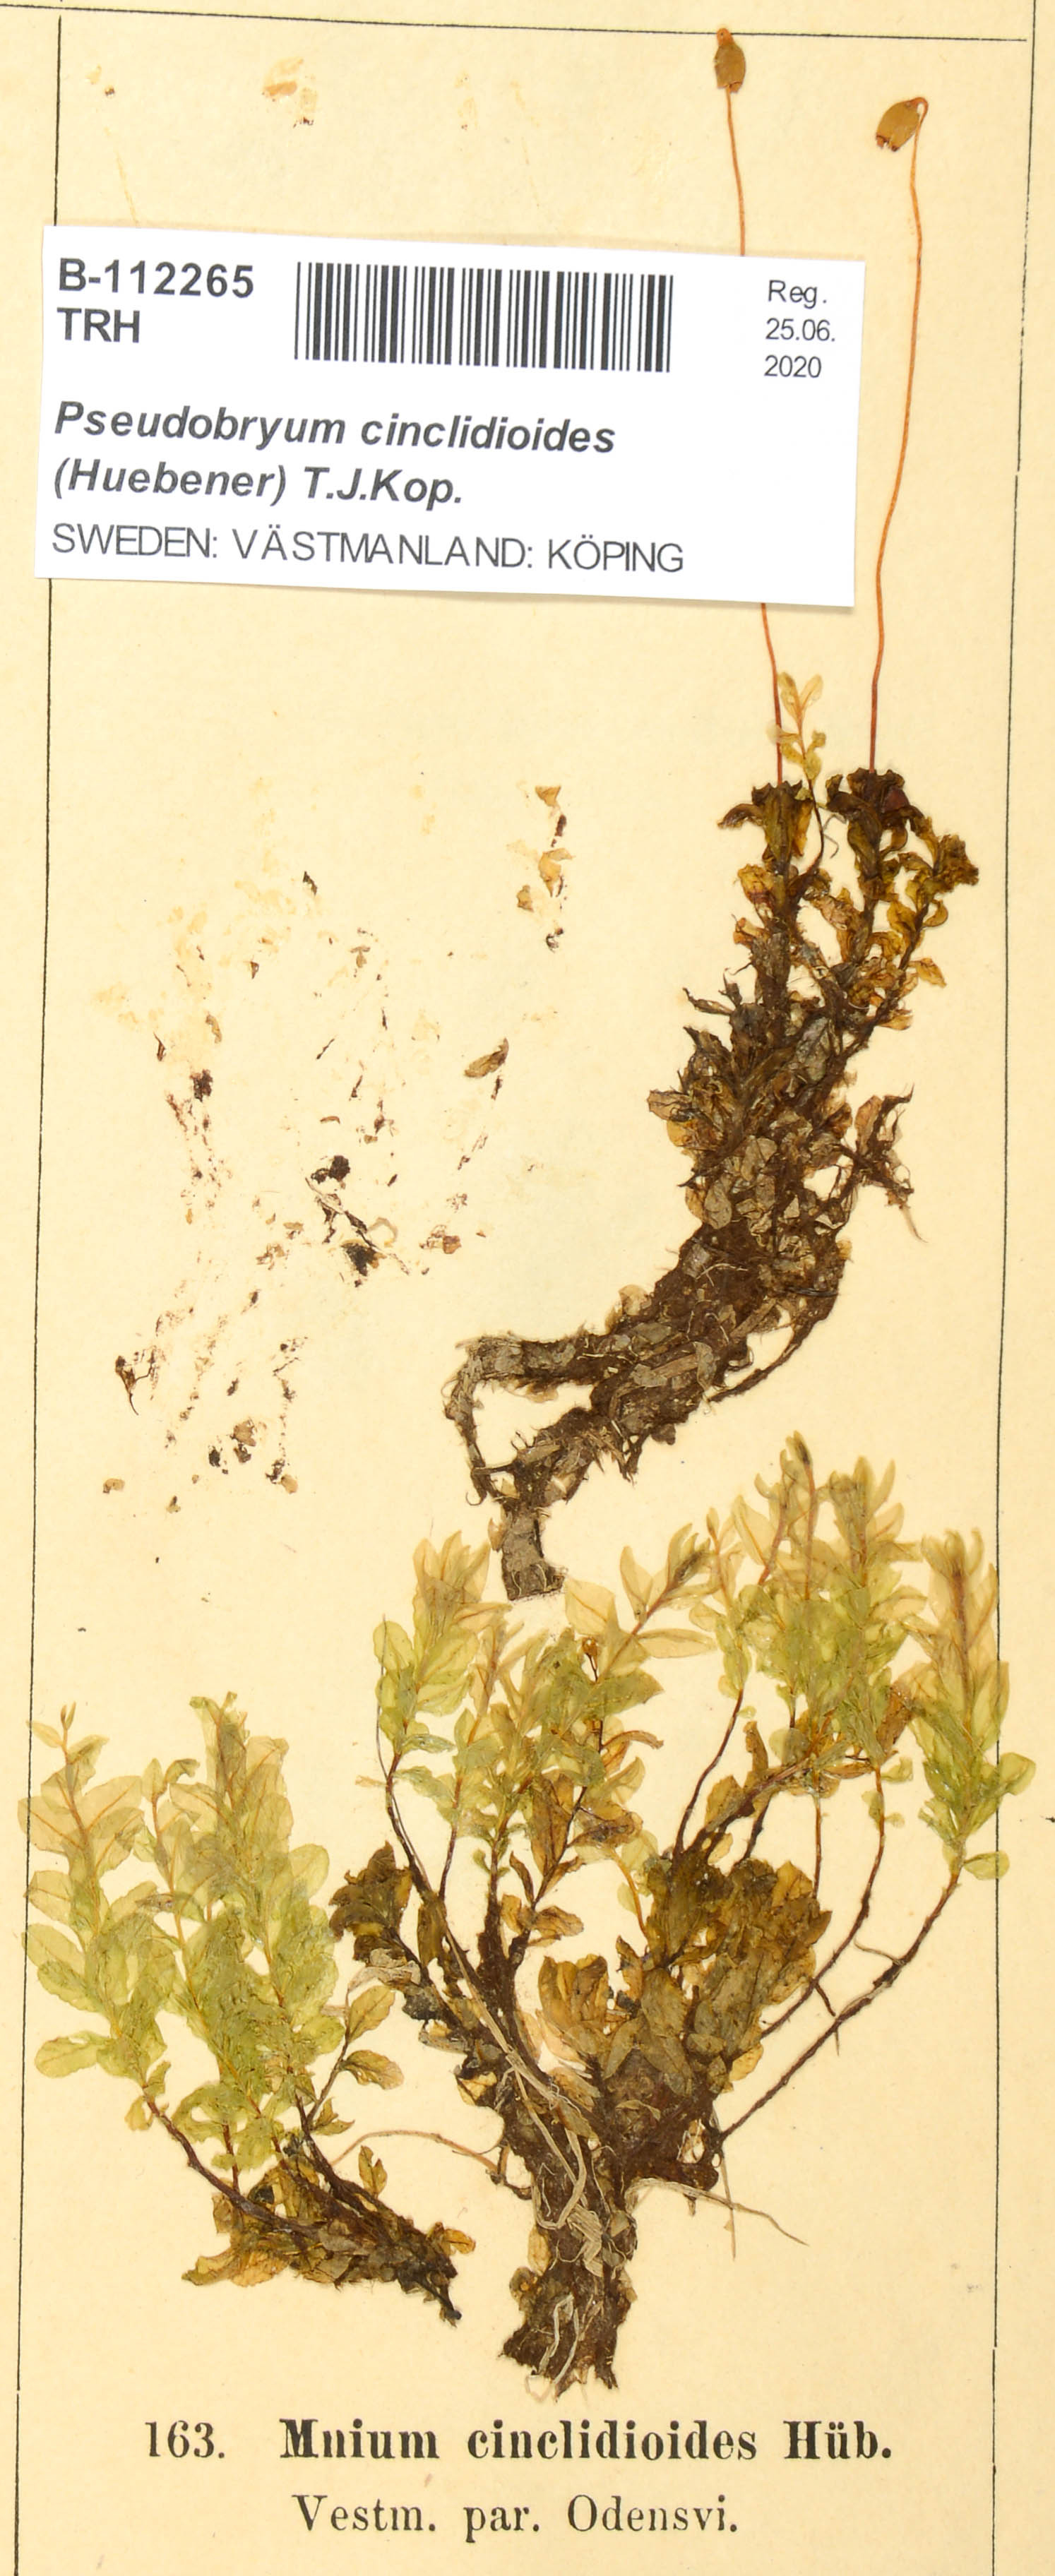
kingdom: Plantae
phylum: Bryophyta
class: Bryopsida
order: Bryales
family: Mniaceae
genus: Pseudobryum
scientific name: Pseudobryum cinclidioides
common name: River thyme moss
